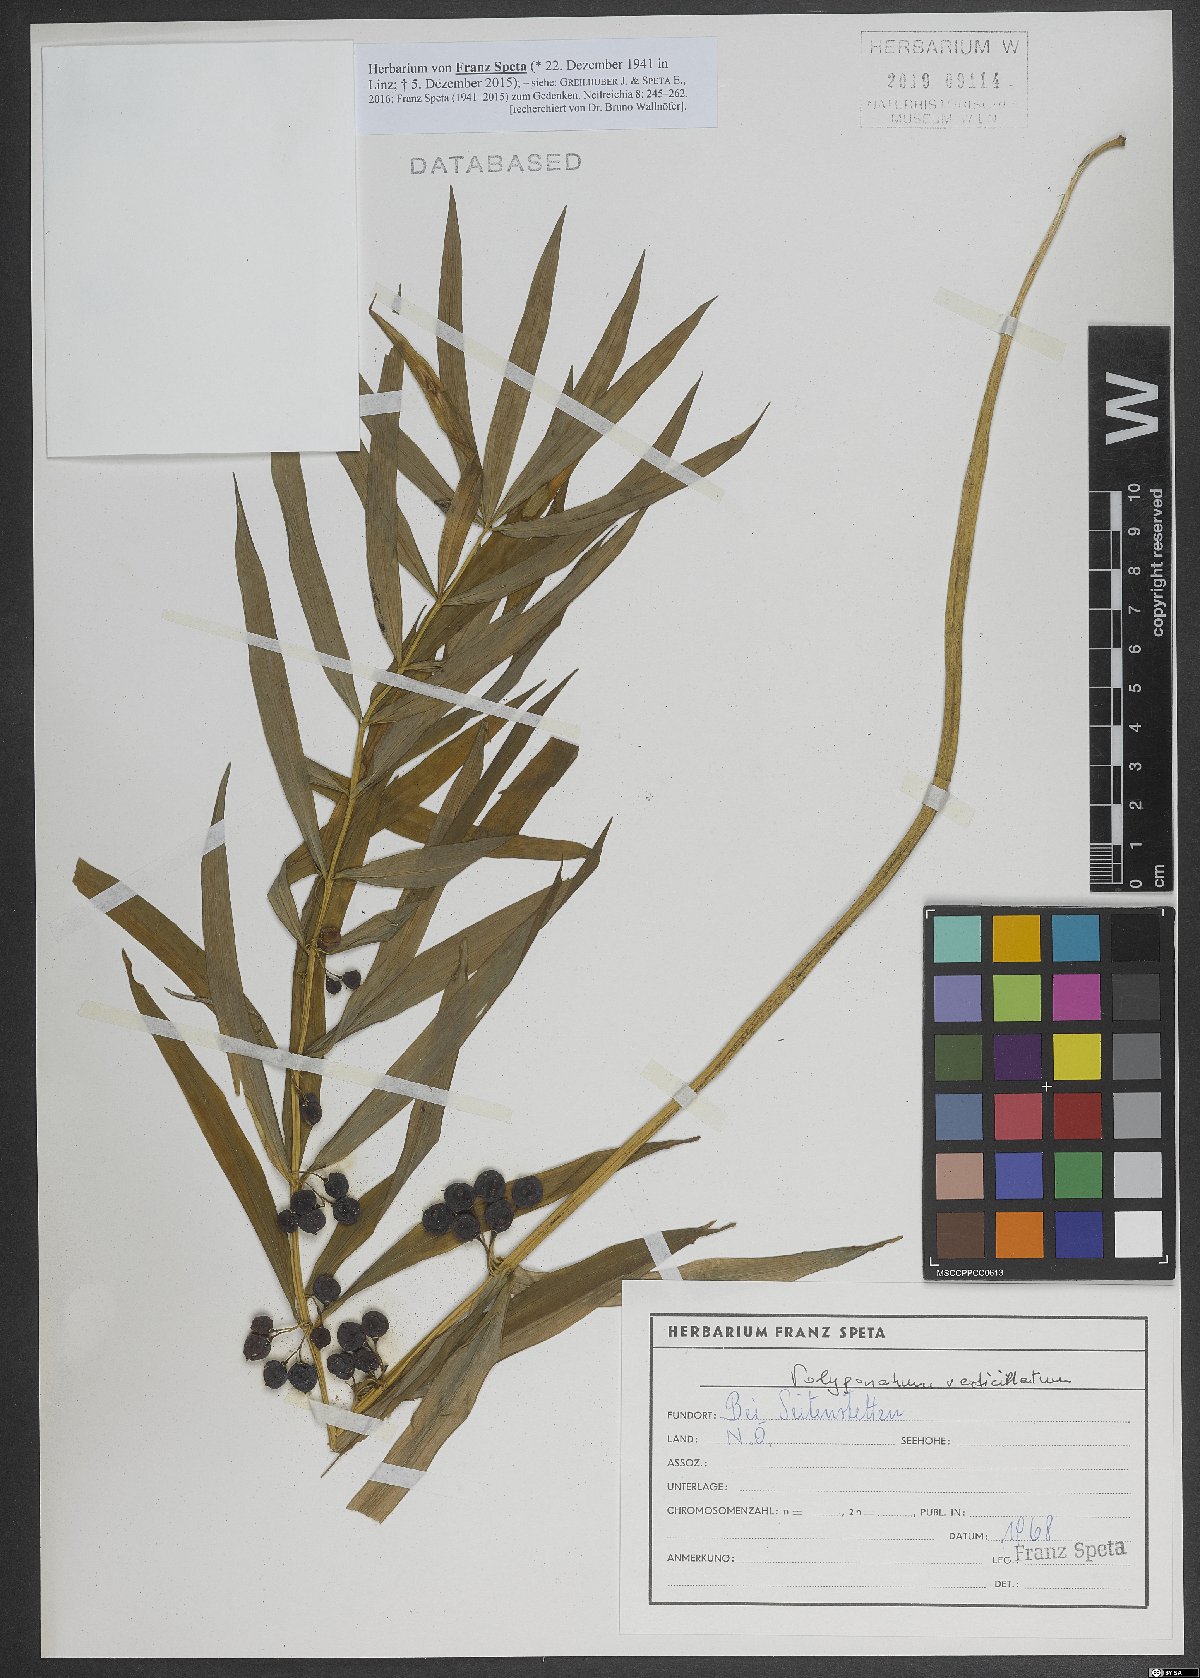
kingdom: Plantae
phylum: Tracheophyta
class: Liliopsida
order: Asparagales
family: Asparagaceae
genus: Polygonatum
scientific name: Polygonatum verticillatum
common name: Whorled solomon's-seal
